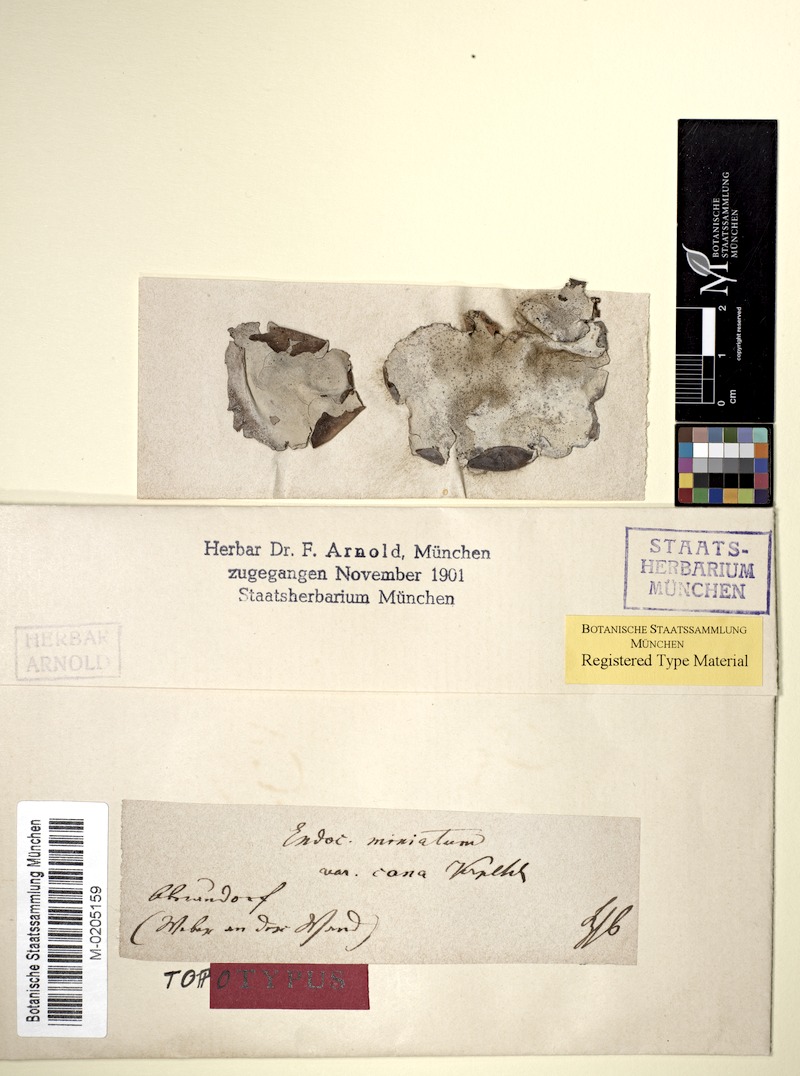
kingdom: Fungi
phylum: Ascomycota
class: Eurotiomycetes
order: Verrucariales
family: Verrucariaceae
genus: Dermatocarpon
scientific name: Dermatocarpon miniatum
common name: Leather lichen
